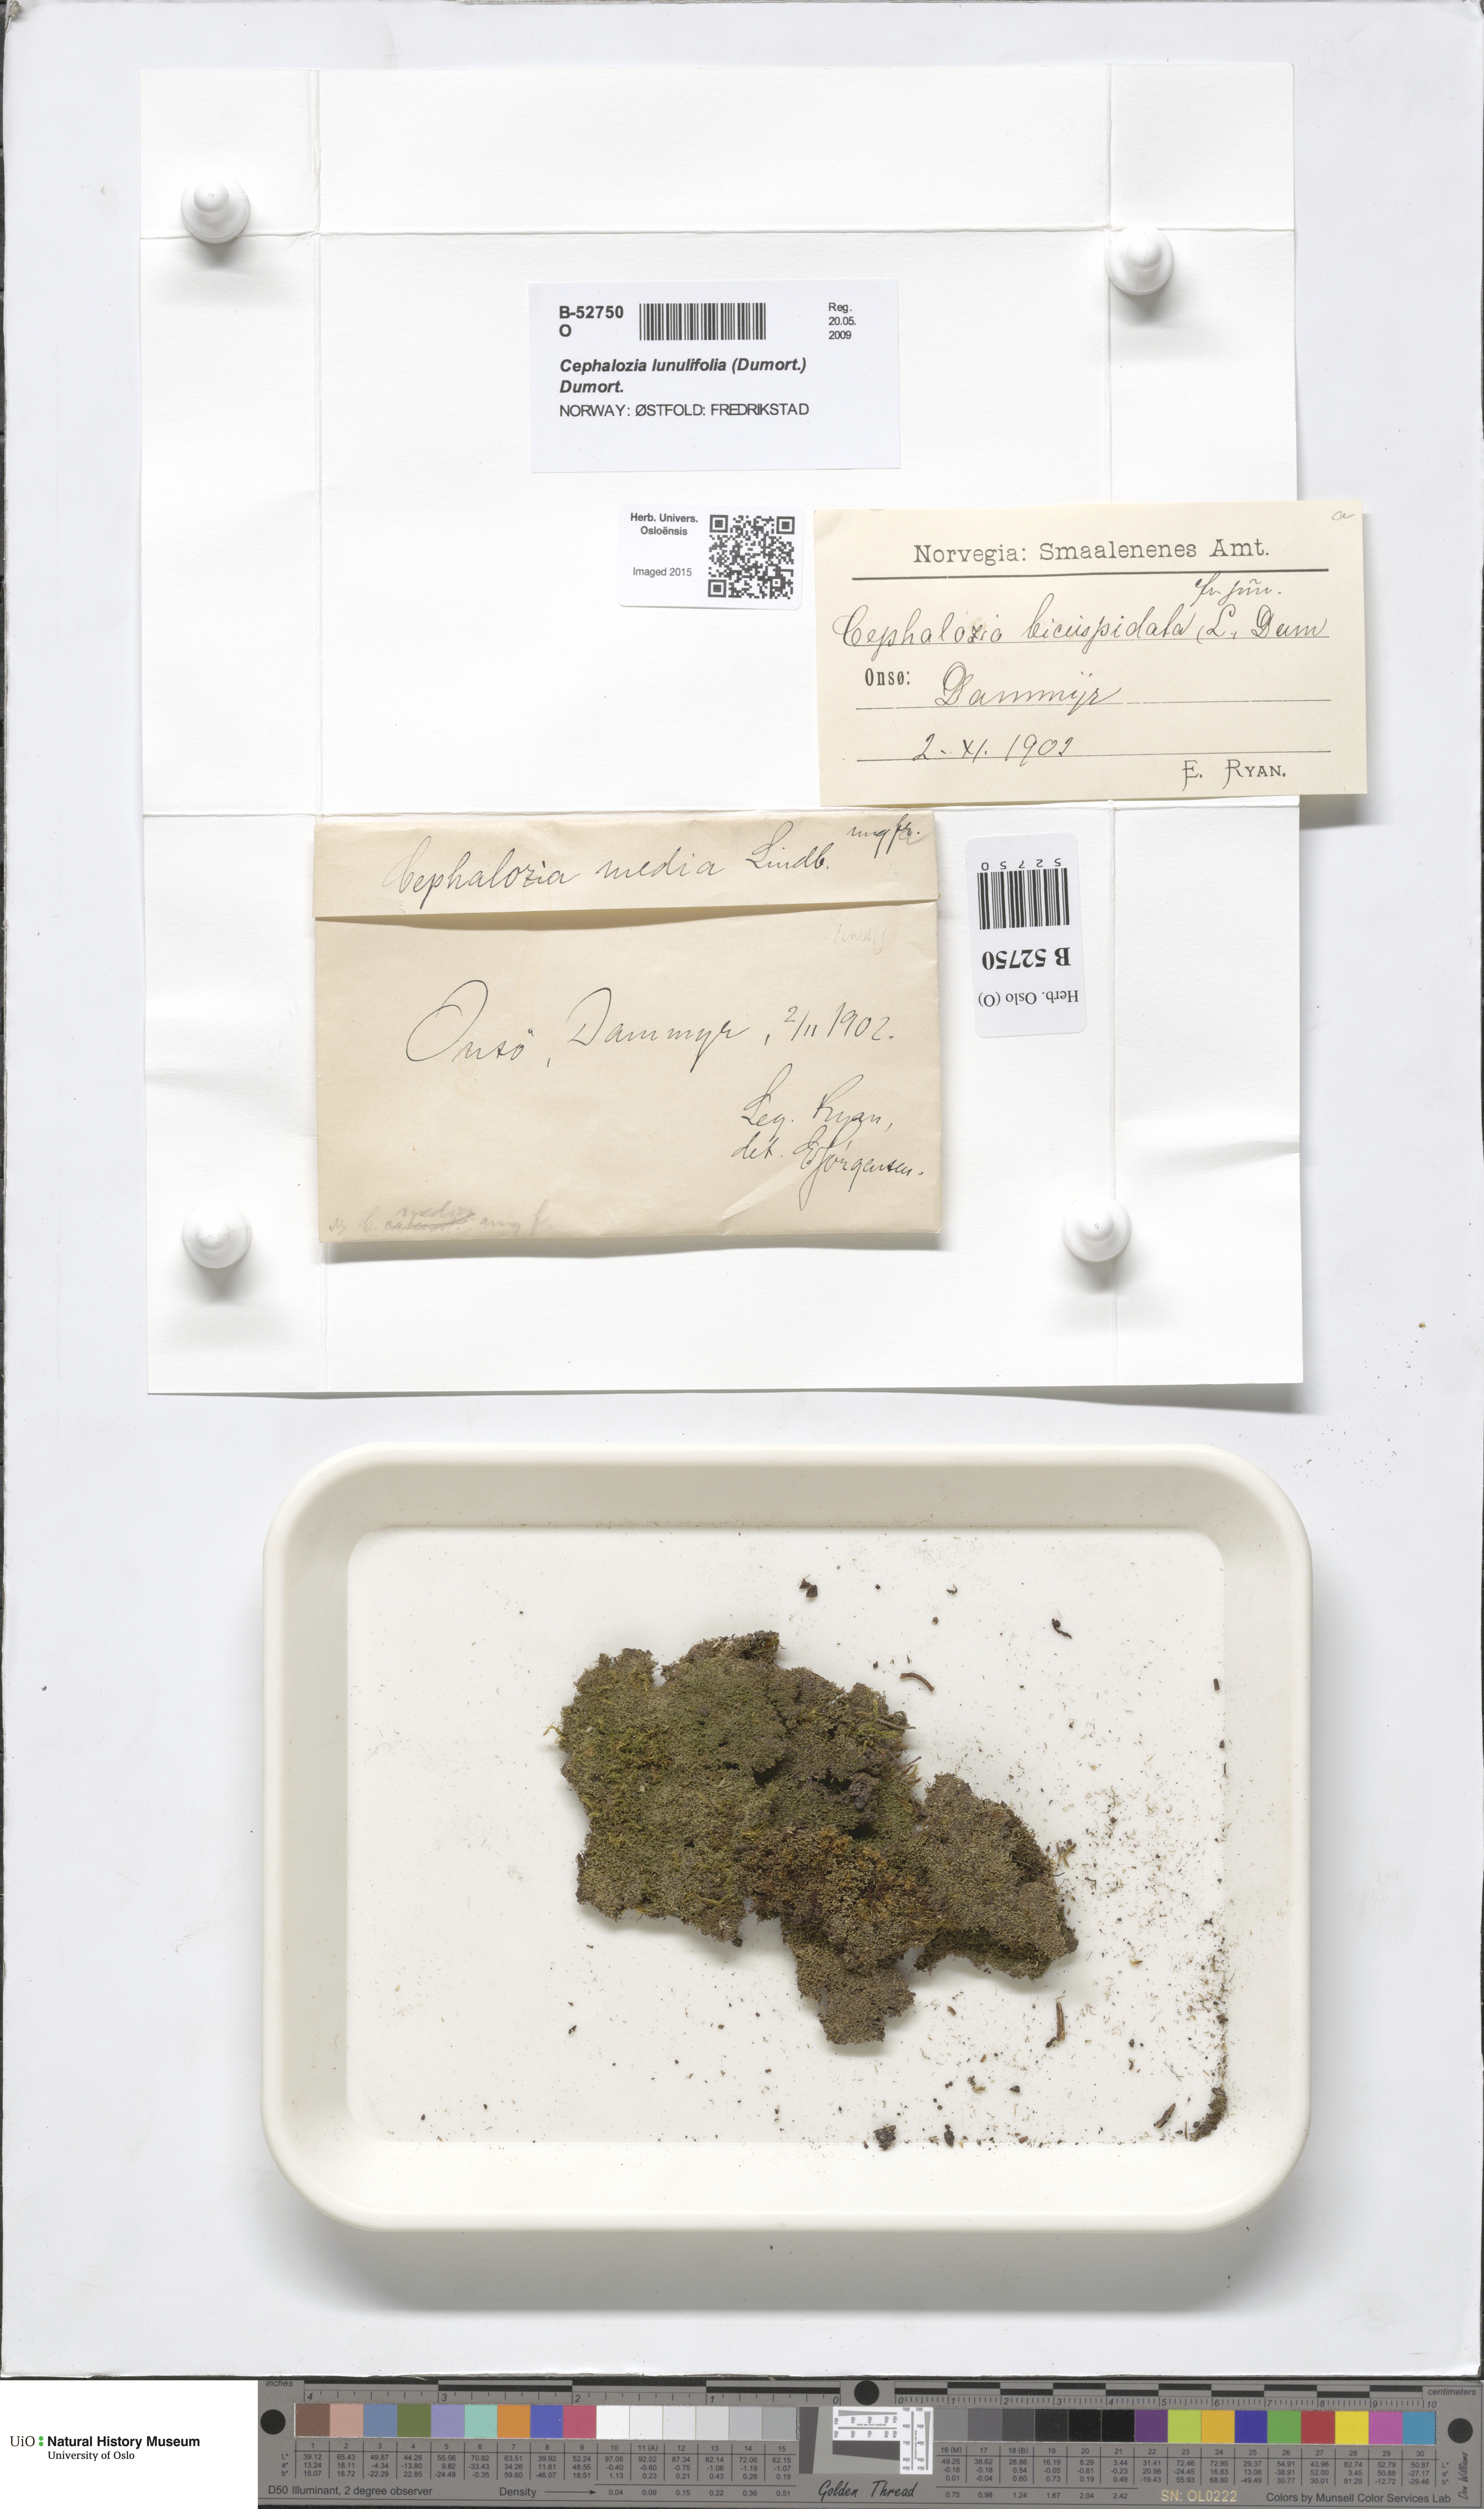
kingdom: Plantae
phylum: Marchantiophyta
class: Jungermanniopsida
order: Jungermanniales
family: Cephaloziaceae
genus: Cephalozia
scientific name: Cephalozia bicuspidata
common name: Two-horned pincerwort
